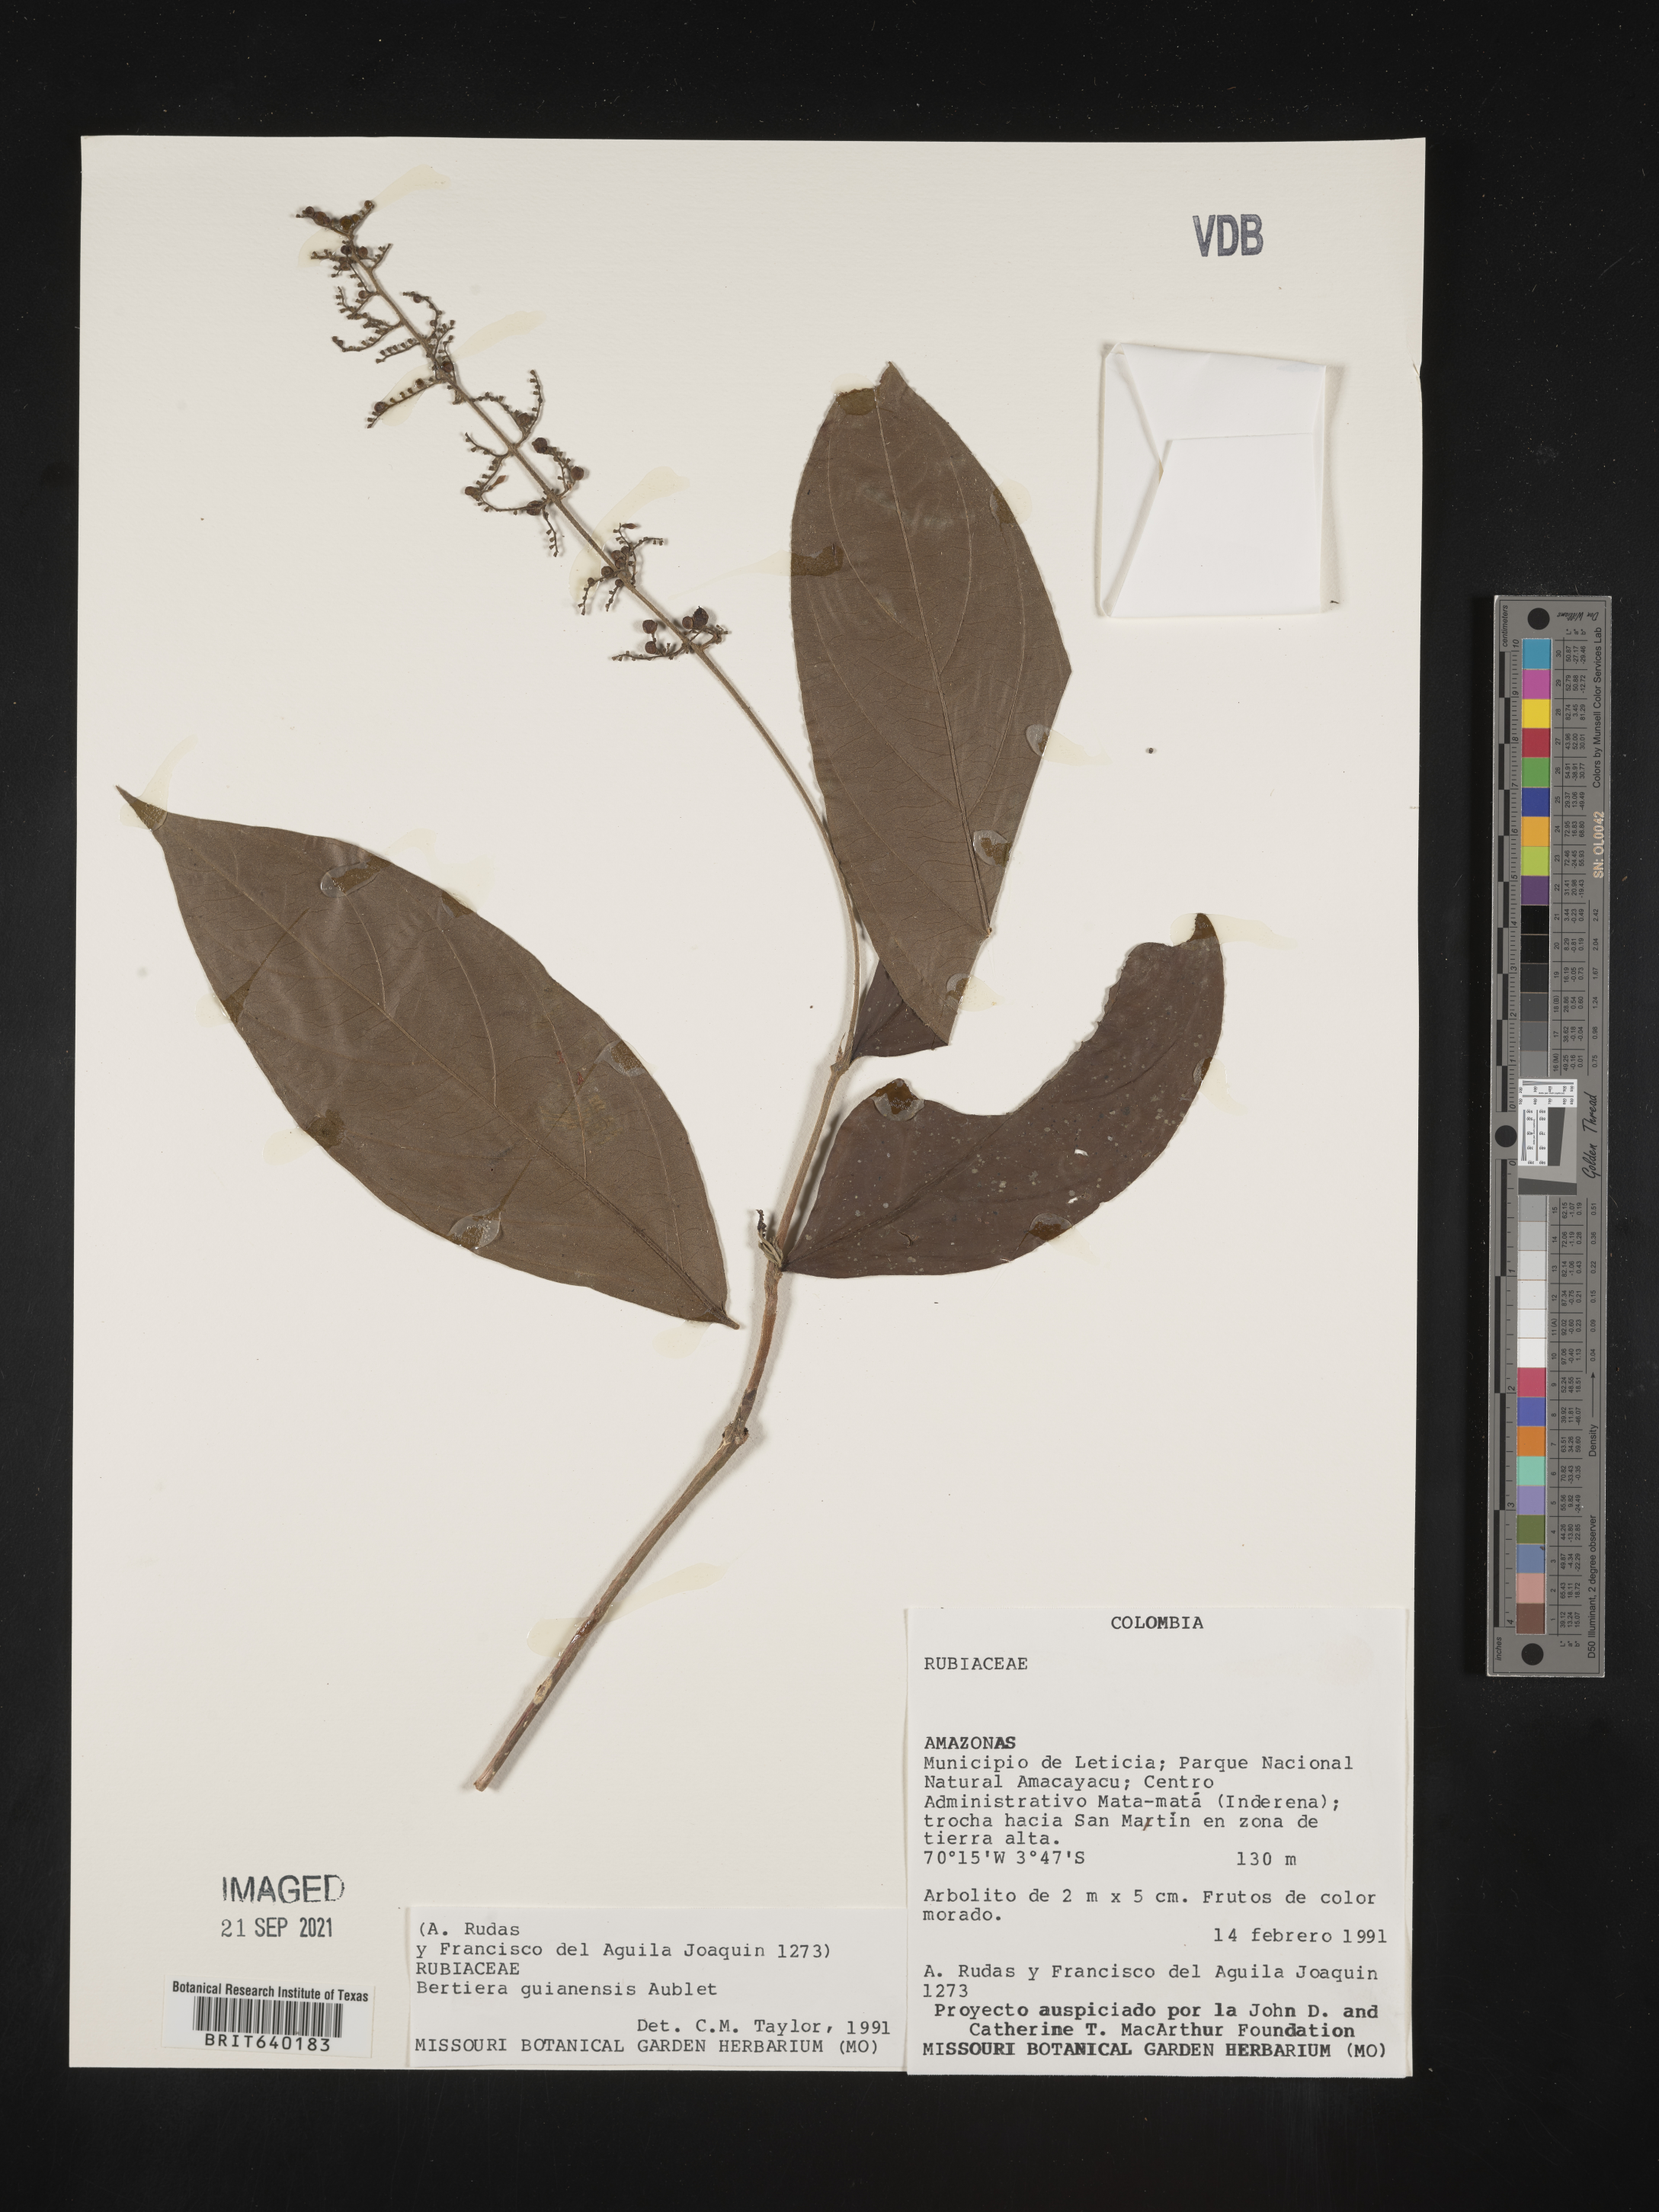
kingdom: Plantae
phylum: Tracheophyta
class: Magnoliopsida
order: Gentianales
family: Rubiaceae
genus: Bertiera
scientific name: Bertiera
